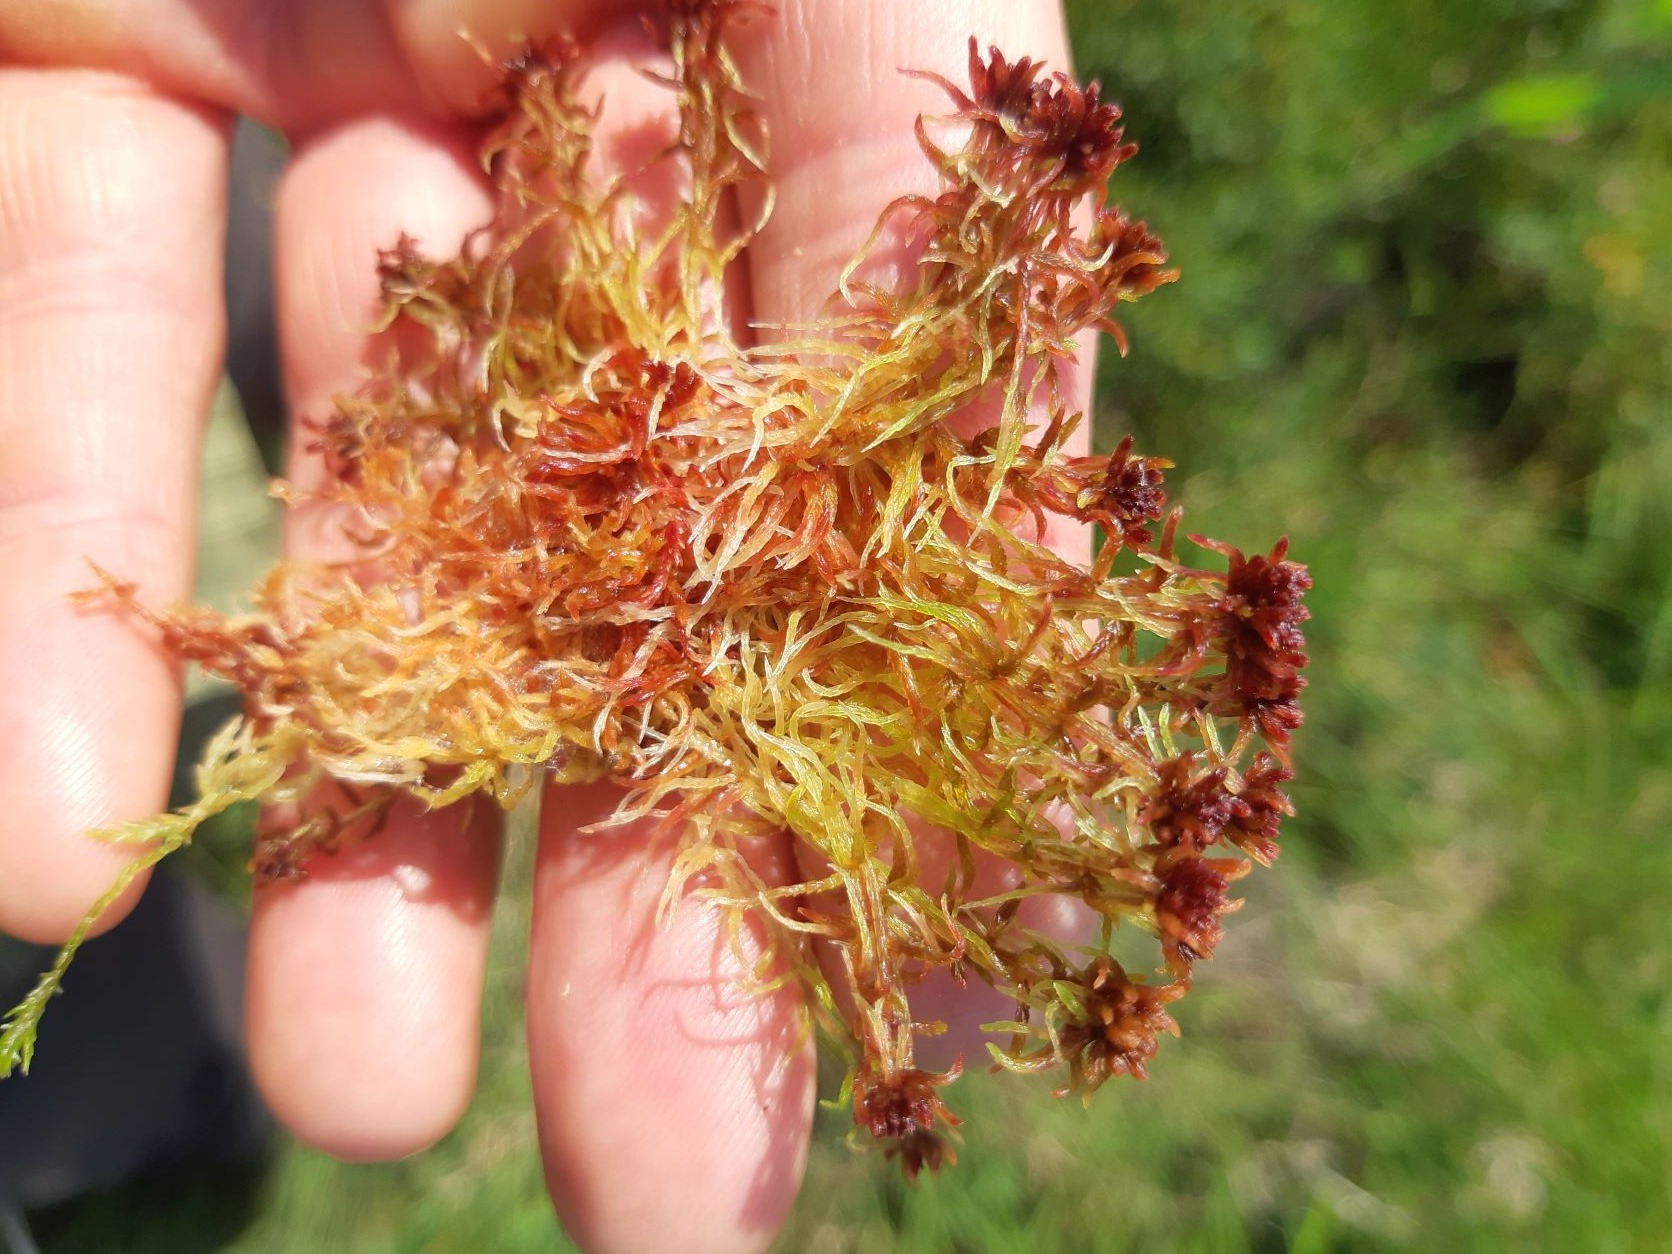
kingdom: Plantae
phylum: Bryophyta
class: Sphagnopsida
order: Sphagnales
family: Sphagnaceae
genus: Sphagnum
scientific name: Sphagnum rubellum
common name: Kohorns-tørvemos
